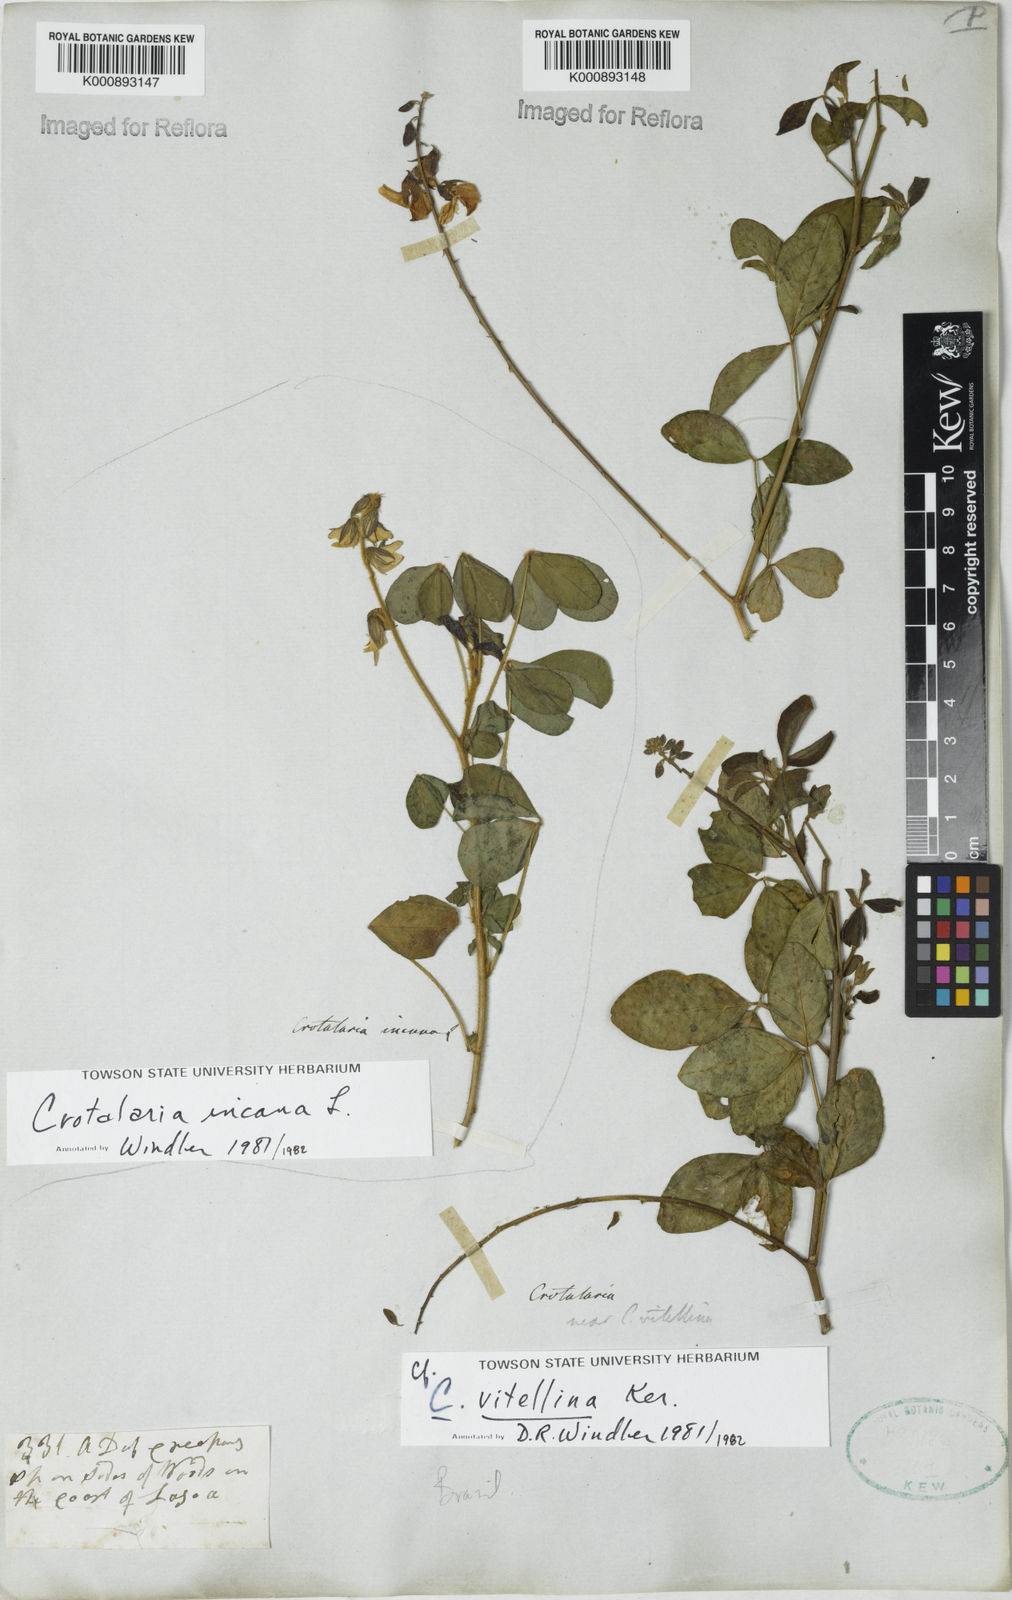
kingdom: Plantae
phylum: Tracheophyta
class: Magnoliopsida
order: Fabales
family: Fabaceae
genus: Crotalaria
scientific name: Crotalaria incana
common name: Shakeshake
